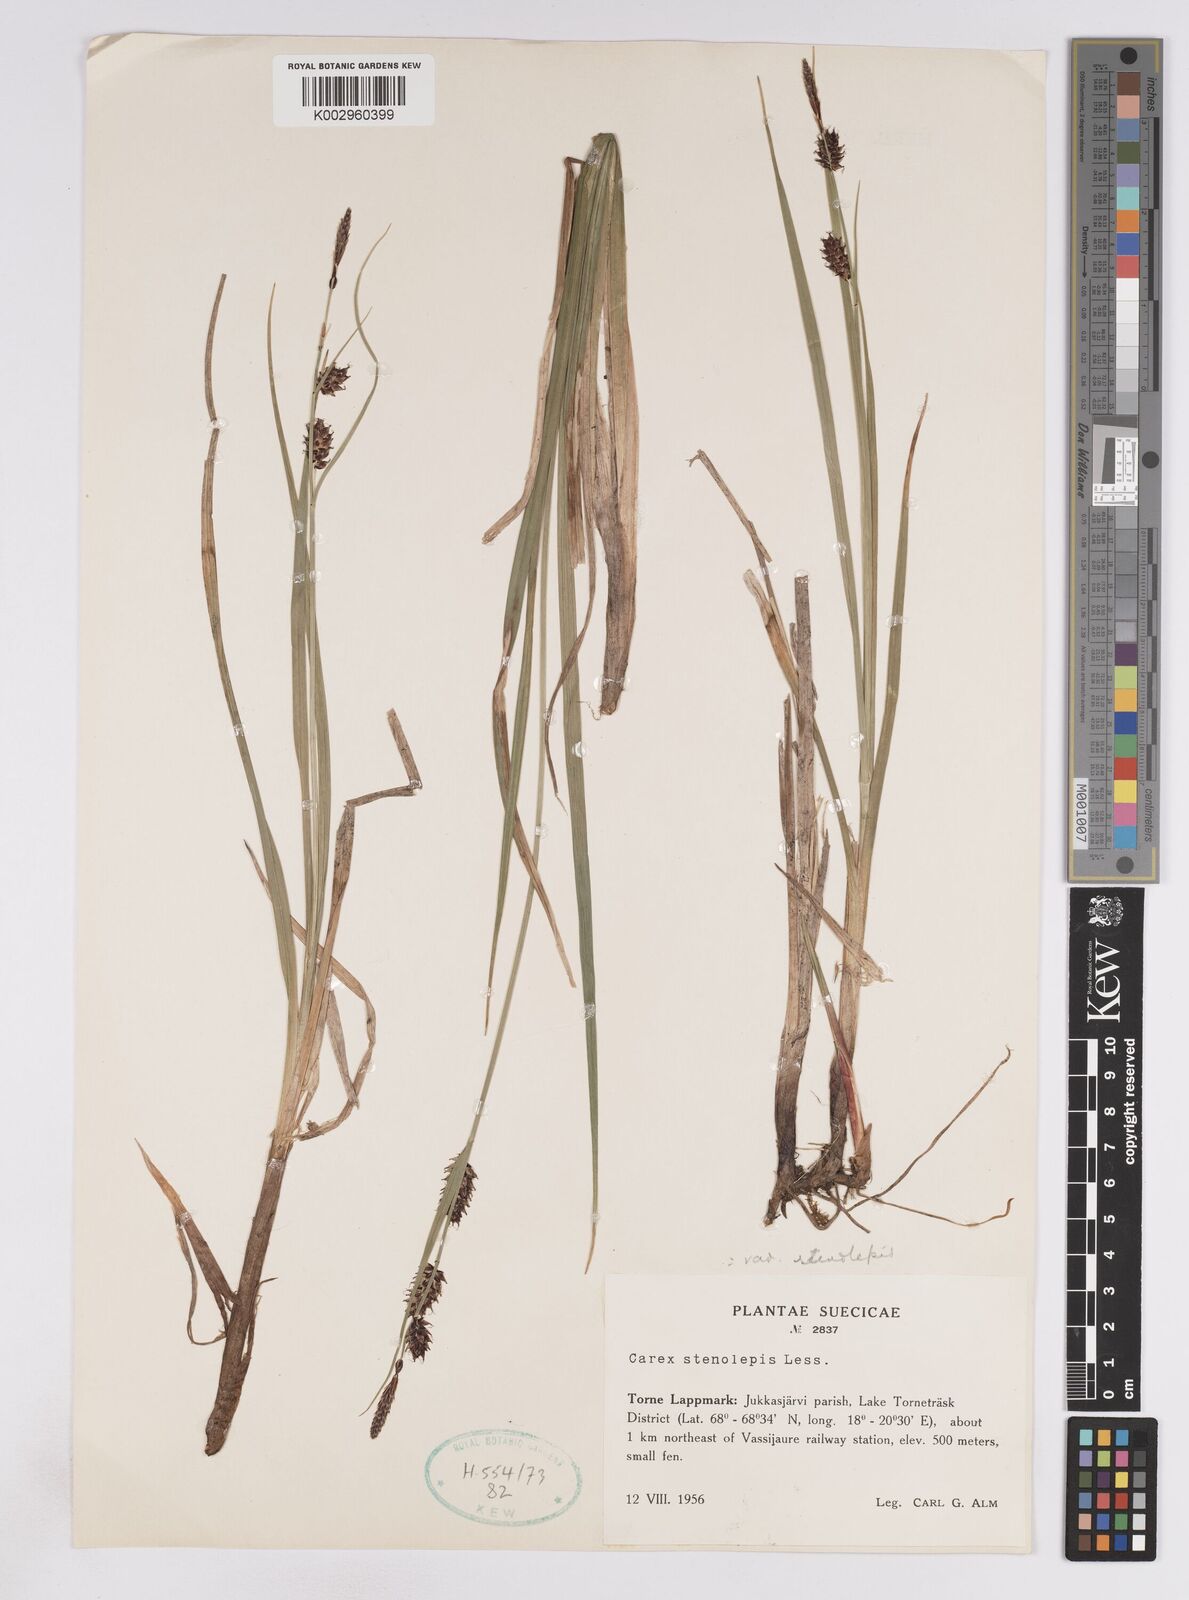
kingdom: Plantae
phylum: Tracheophyta
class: Liliopsida
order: Poales
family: Cyperaceae
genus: Carex
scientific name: Carex rostrata
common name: Bottle sedge
